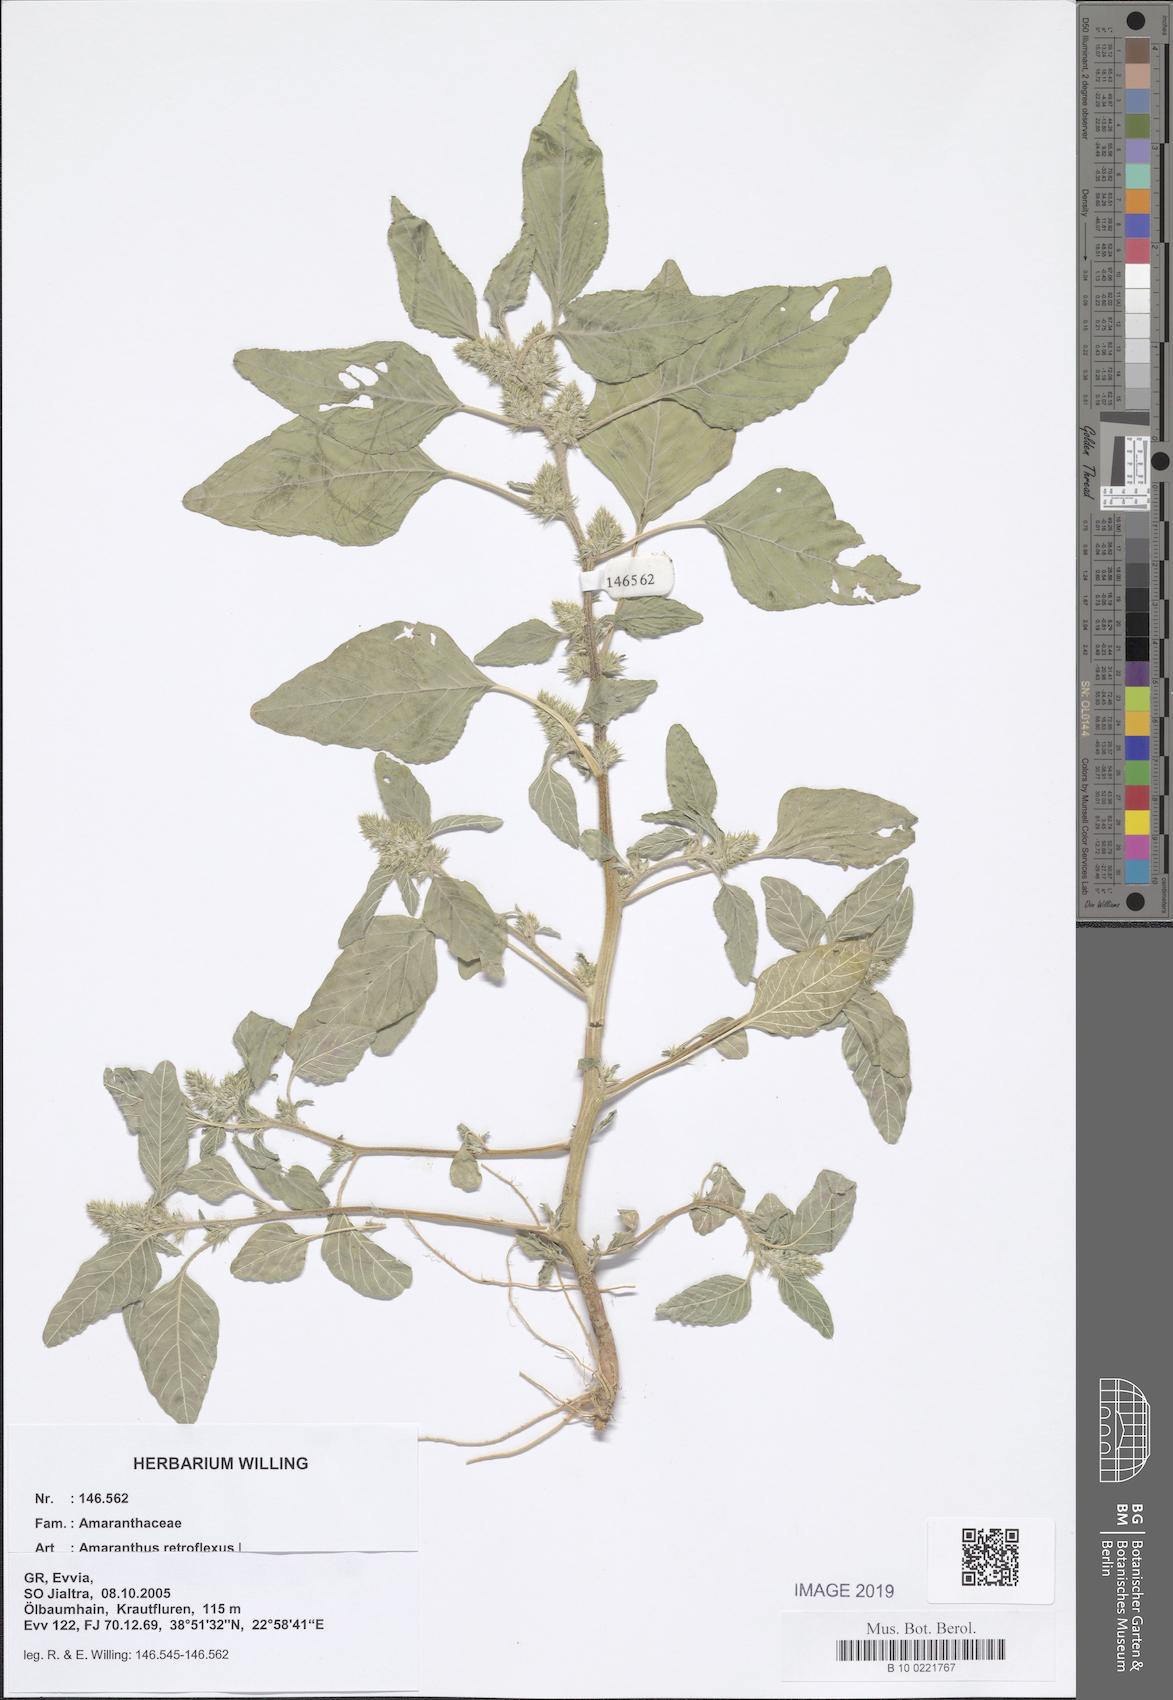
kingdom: Plantae
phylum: Tracheophyta
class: Magnoliopsida
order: Caryophyllales
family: Amaranthaceae
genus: Amaranthus
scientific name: Amaranthus retroflexus
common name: Redroot amaranth
